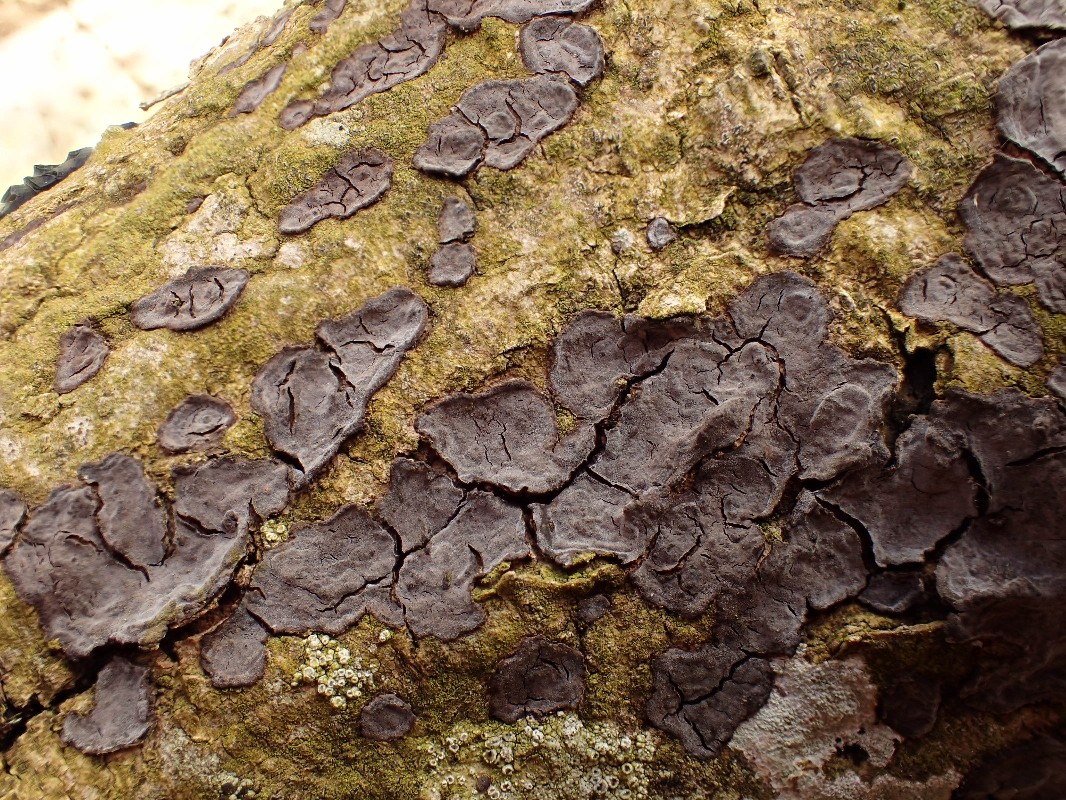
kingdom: Fungi
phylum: Basidiomycota
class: Agaricomycetes
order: Russulales
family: Peniophoraceae
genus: Peniophora
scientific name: Peniophora limitata
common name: mørkrandet voksskind
